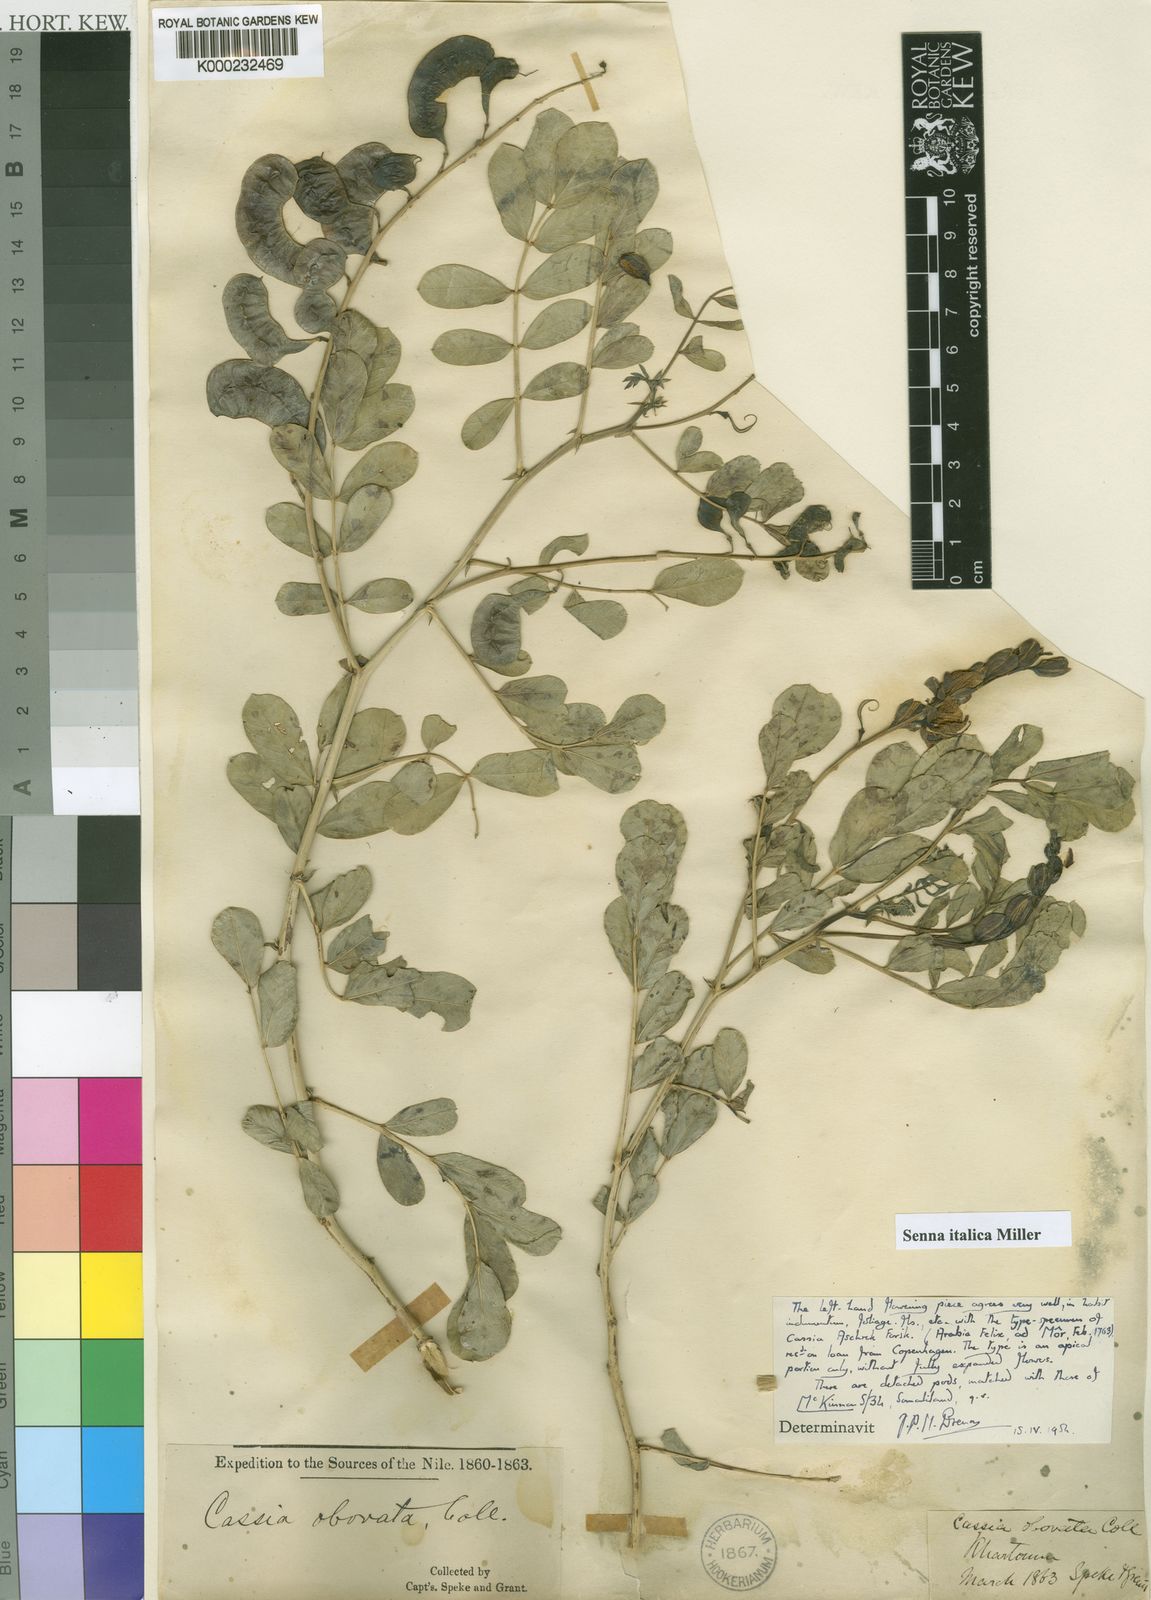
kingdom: Plantae
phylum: Tracheophyta
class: Magnoliopsida
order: Fabales
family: Fabaceae
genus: Senna
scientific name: Senna italica
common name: Port royal senna
